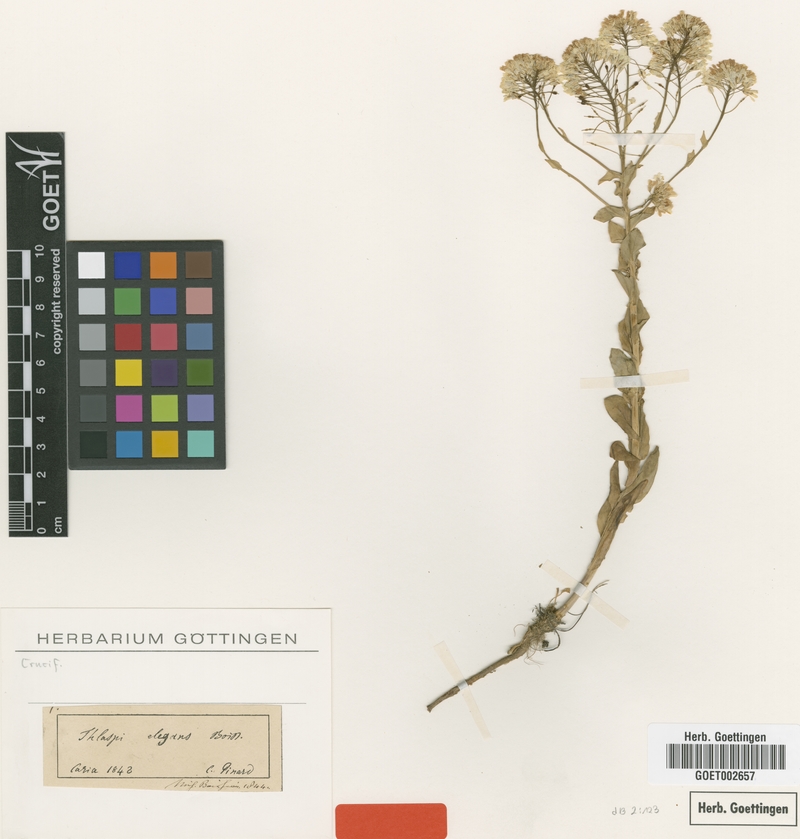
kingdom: Plantae
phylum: Tracheophyta
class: Magnoliopsida
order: Brassicales
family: Brassicaceae
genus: Noccaea
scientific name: Noccaea elegans
